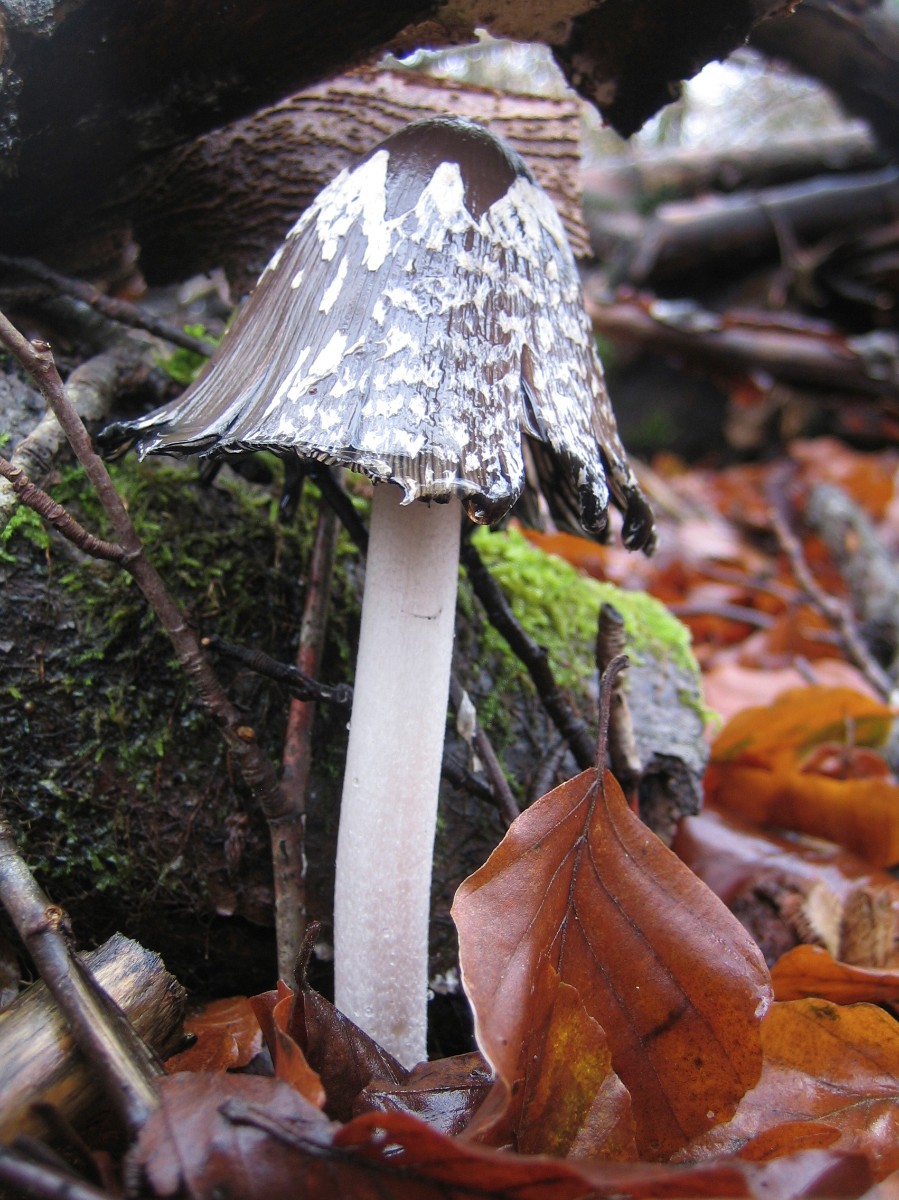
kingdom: Fungi
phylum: Basidiomycota
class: Agaricomycetes
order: Agaricales
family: Psathyrellaceae
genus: Coprinopsis
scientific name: Coprinopsis picacea
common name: skade-blækhat
